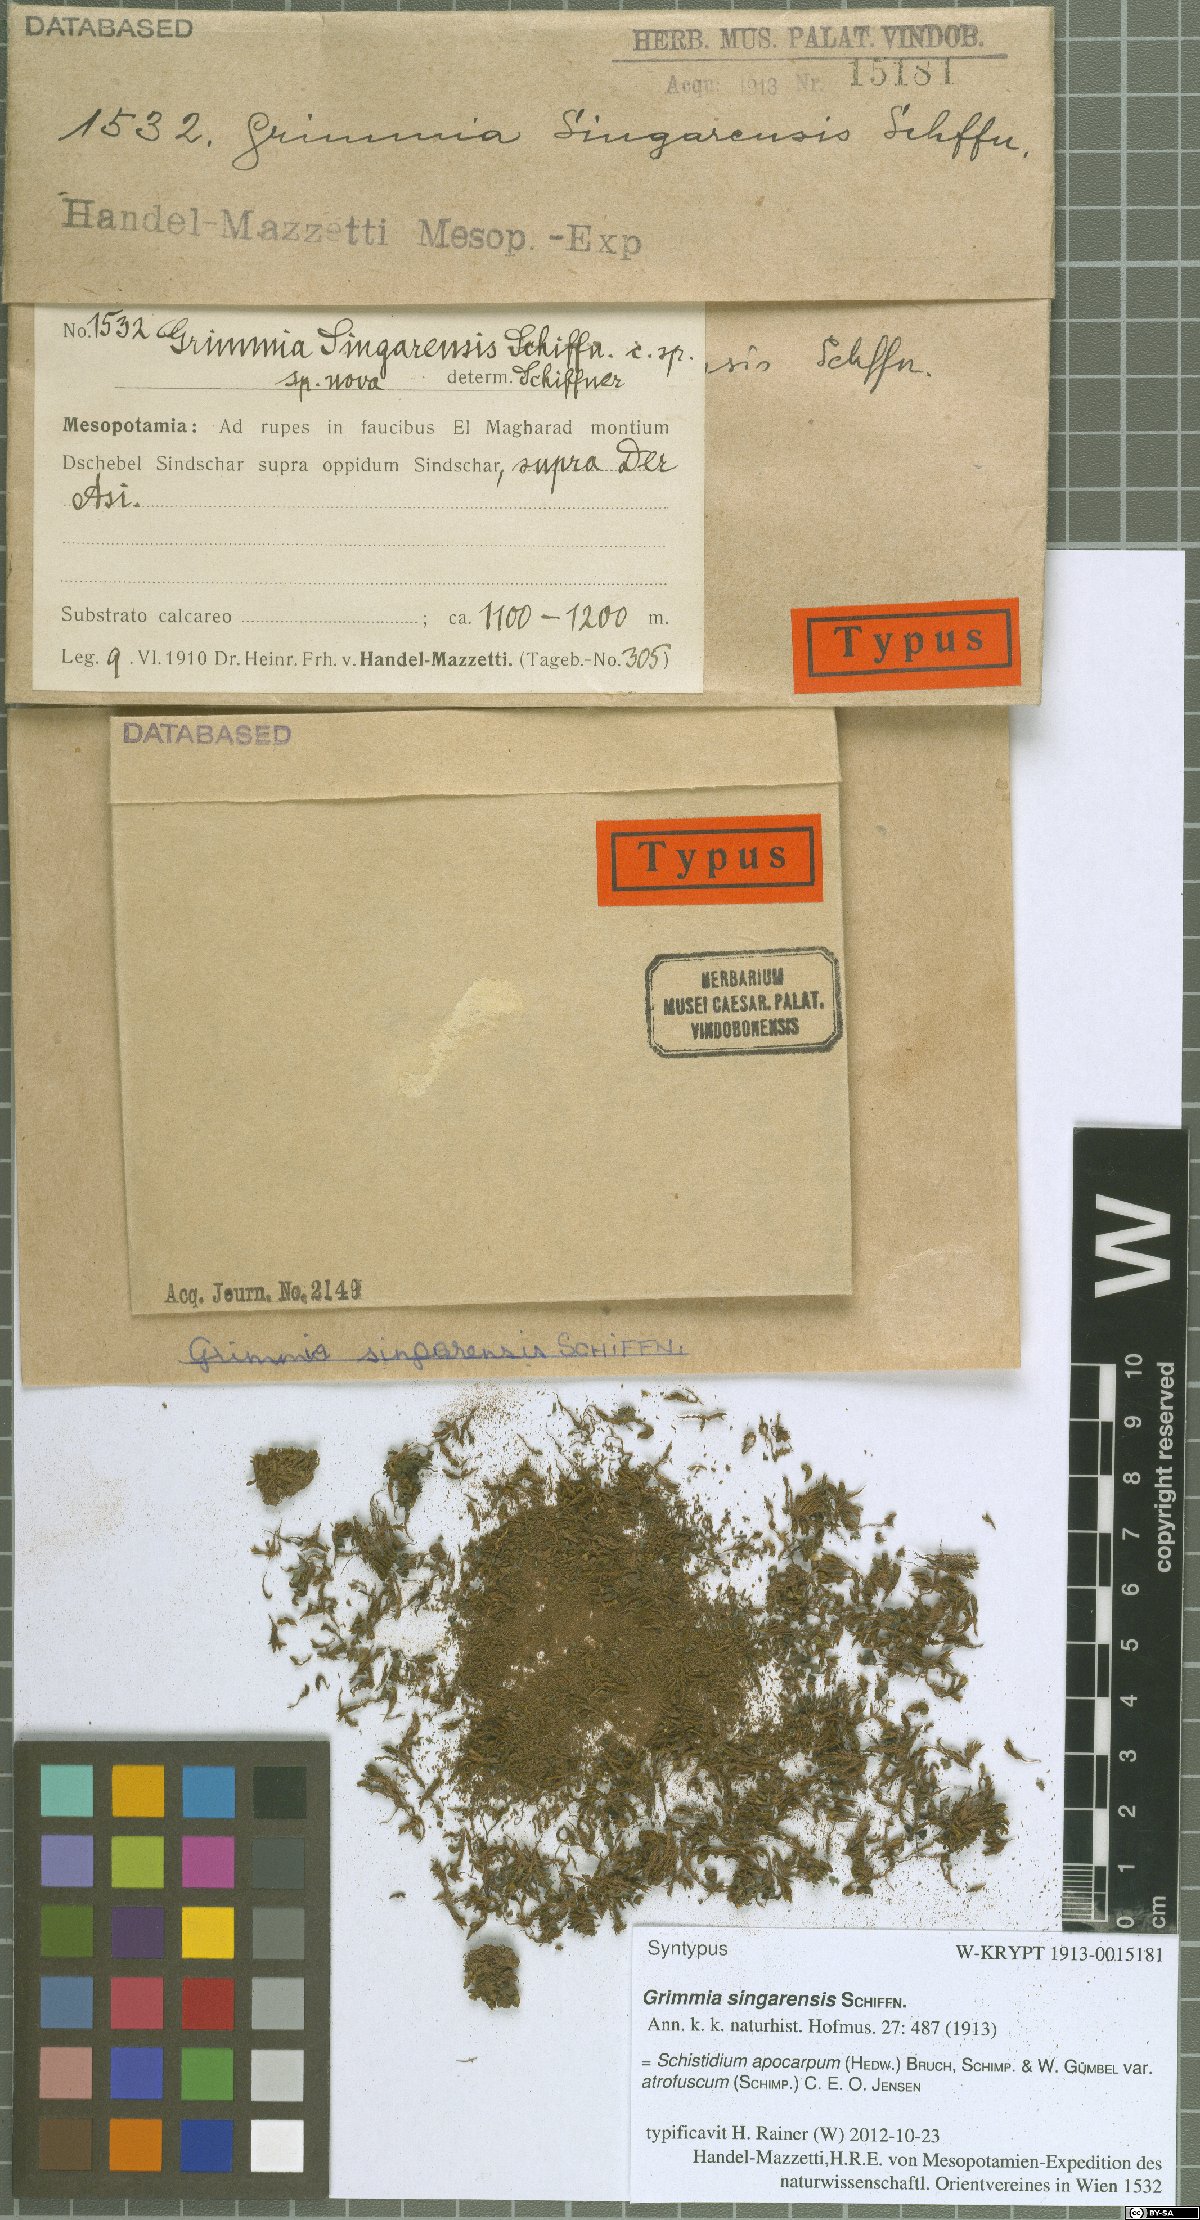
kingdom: Plantae
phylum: Bryophyta
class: Bryopsida
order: Grimmiales
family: Grimmiaceae
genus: Schistidium
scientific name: Schistidium helveticum
